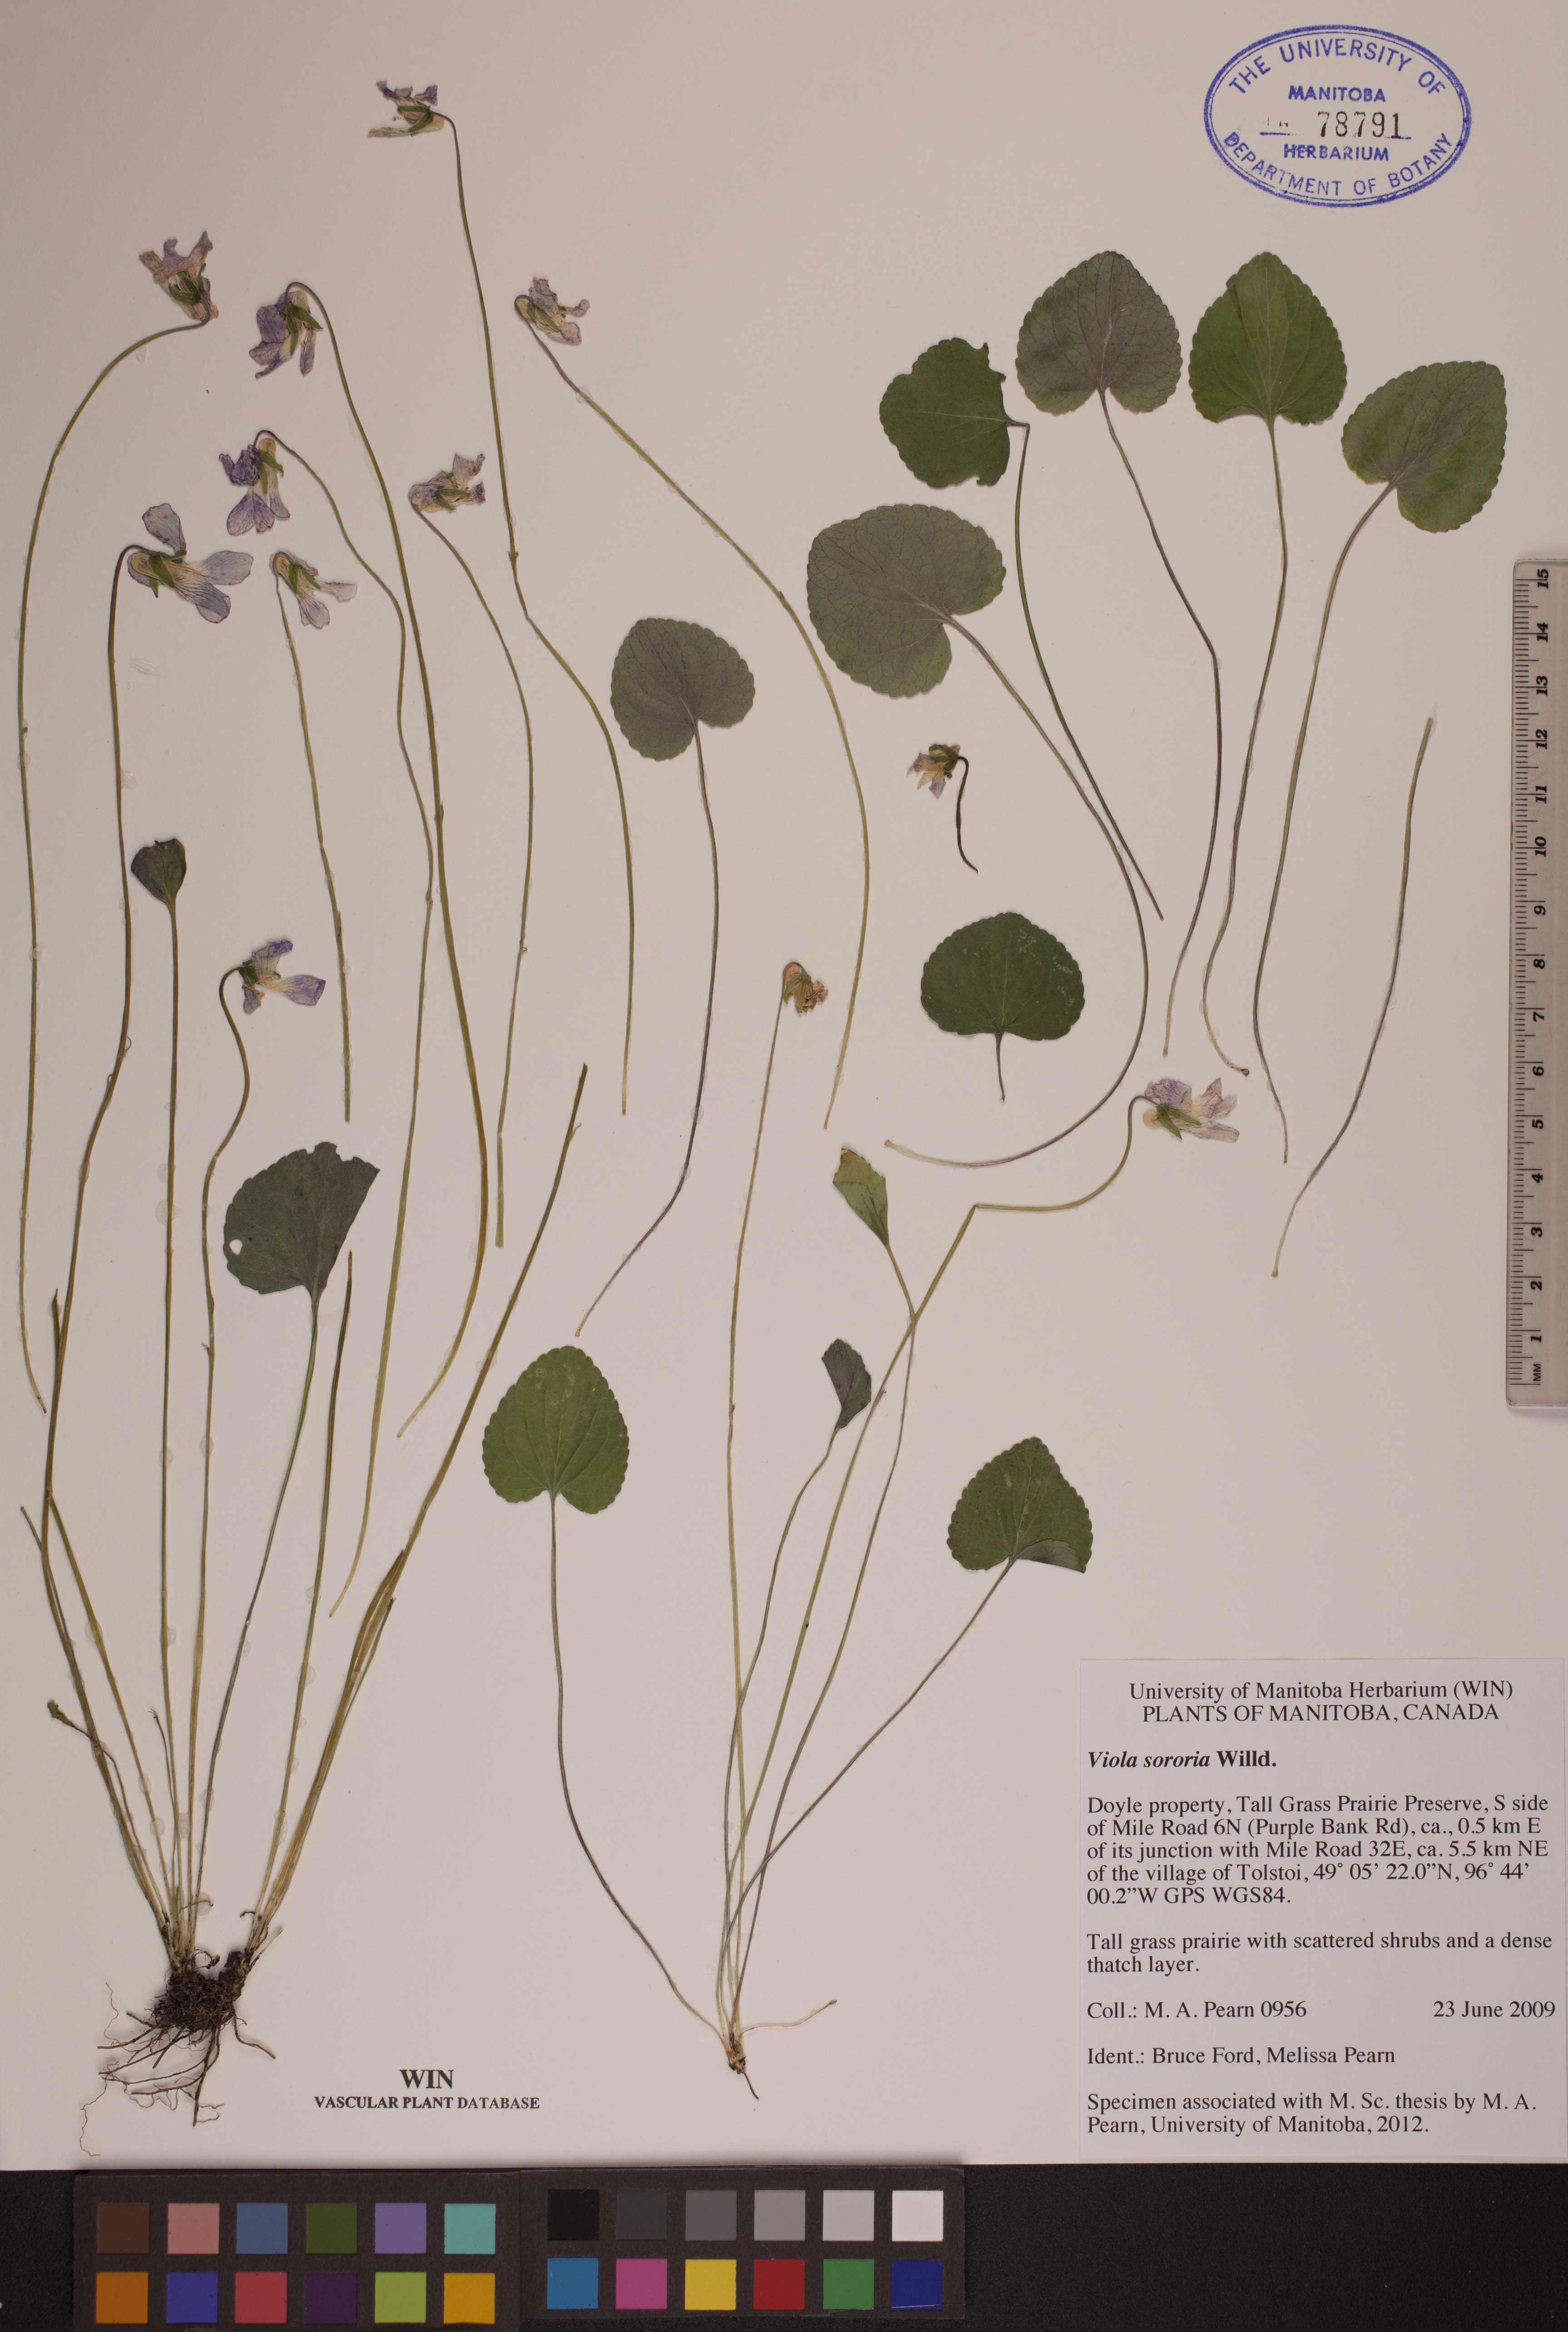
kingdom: Plantae
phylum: Tracheophyta
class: Magnoliopsida
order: Malpighiales
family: Violaceae
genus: Viola
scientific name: Viola sororia
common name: Dooryard violet
